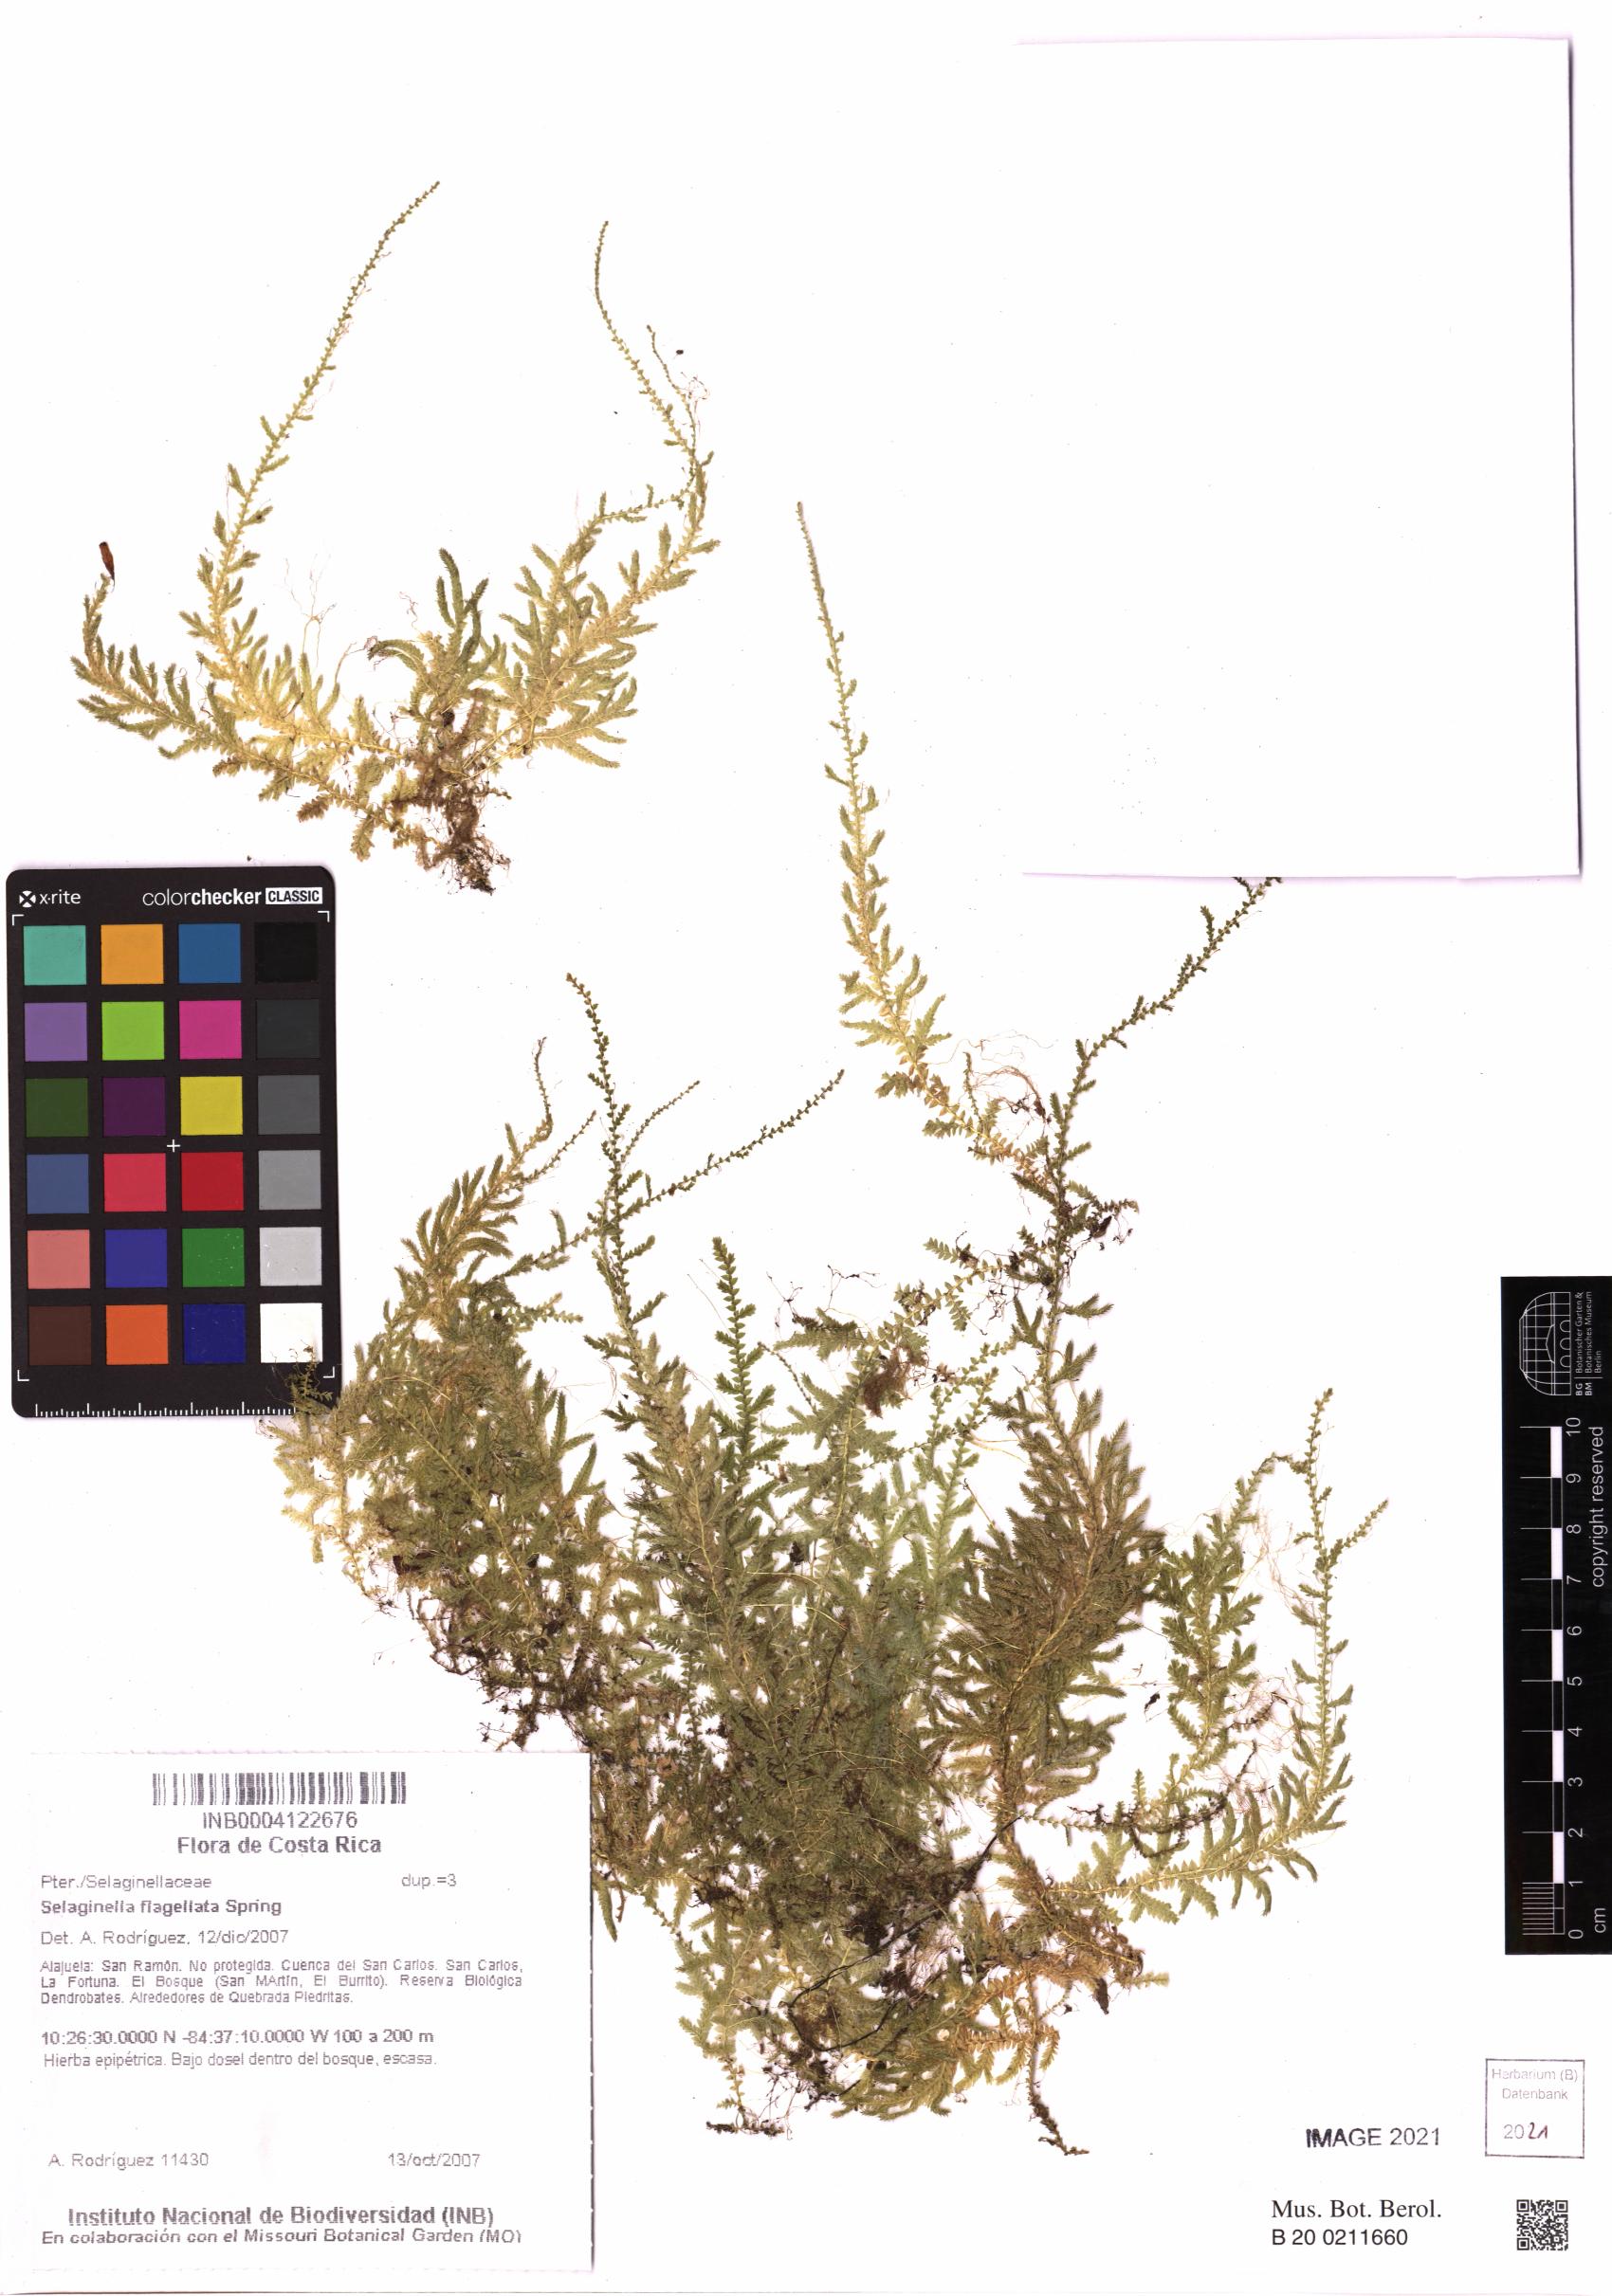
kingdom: Plantae
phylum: Tracheophyta
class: Lycopodiopsida
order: Selaginellales
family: Selaginellaceae
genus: Selaginella
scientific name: Selaginella flagellata
